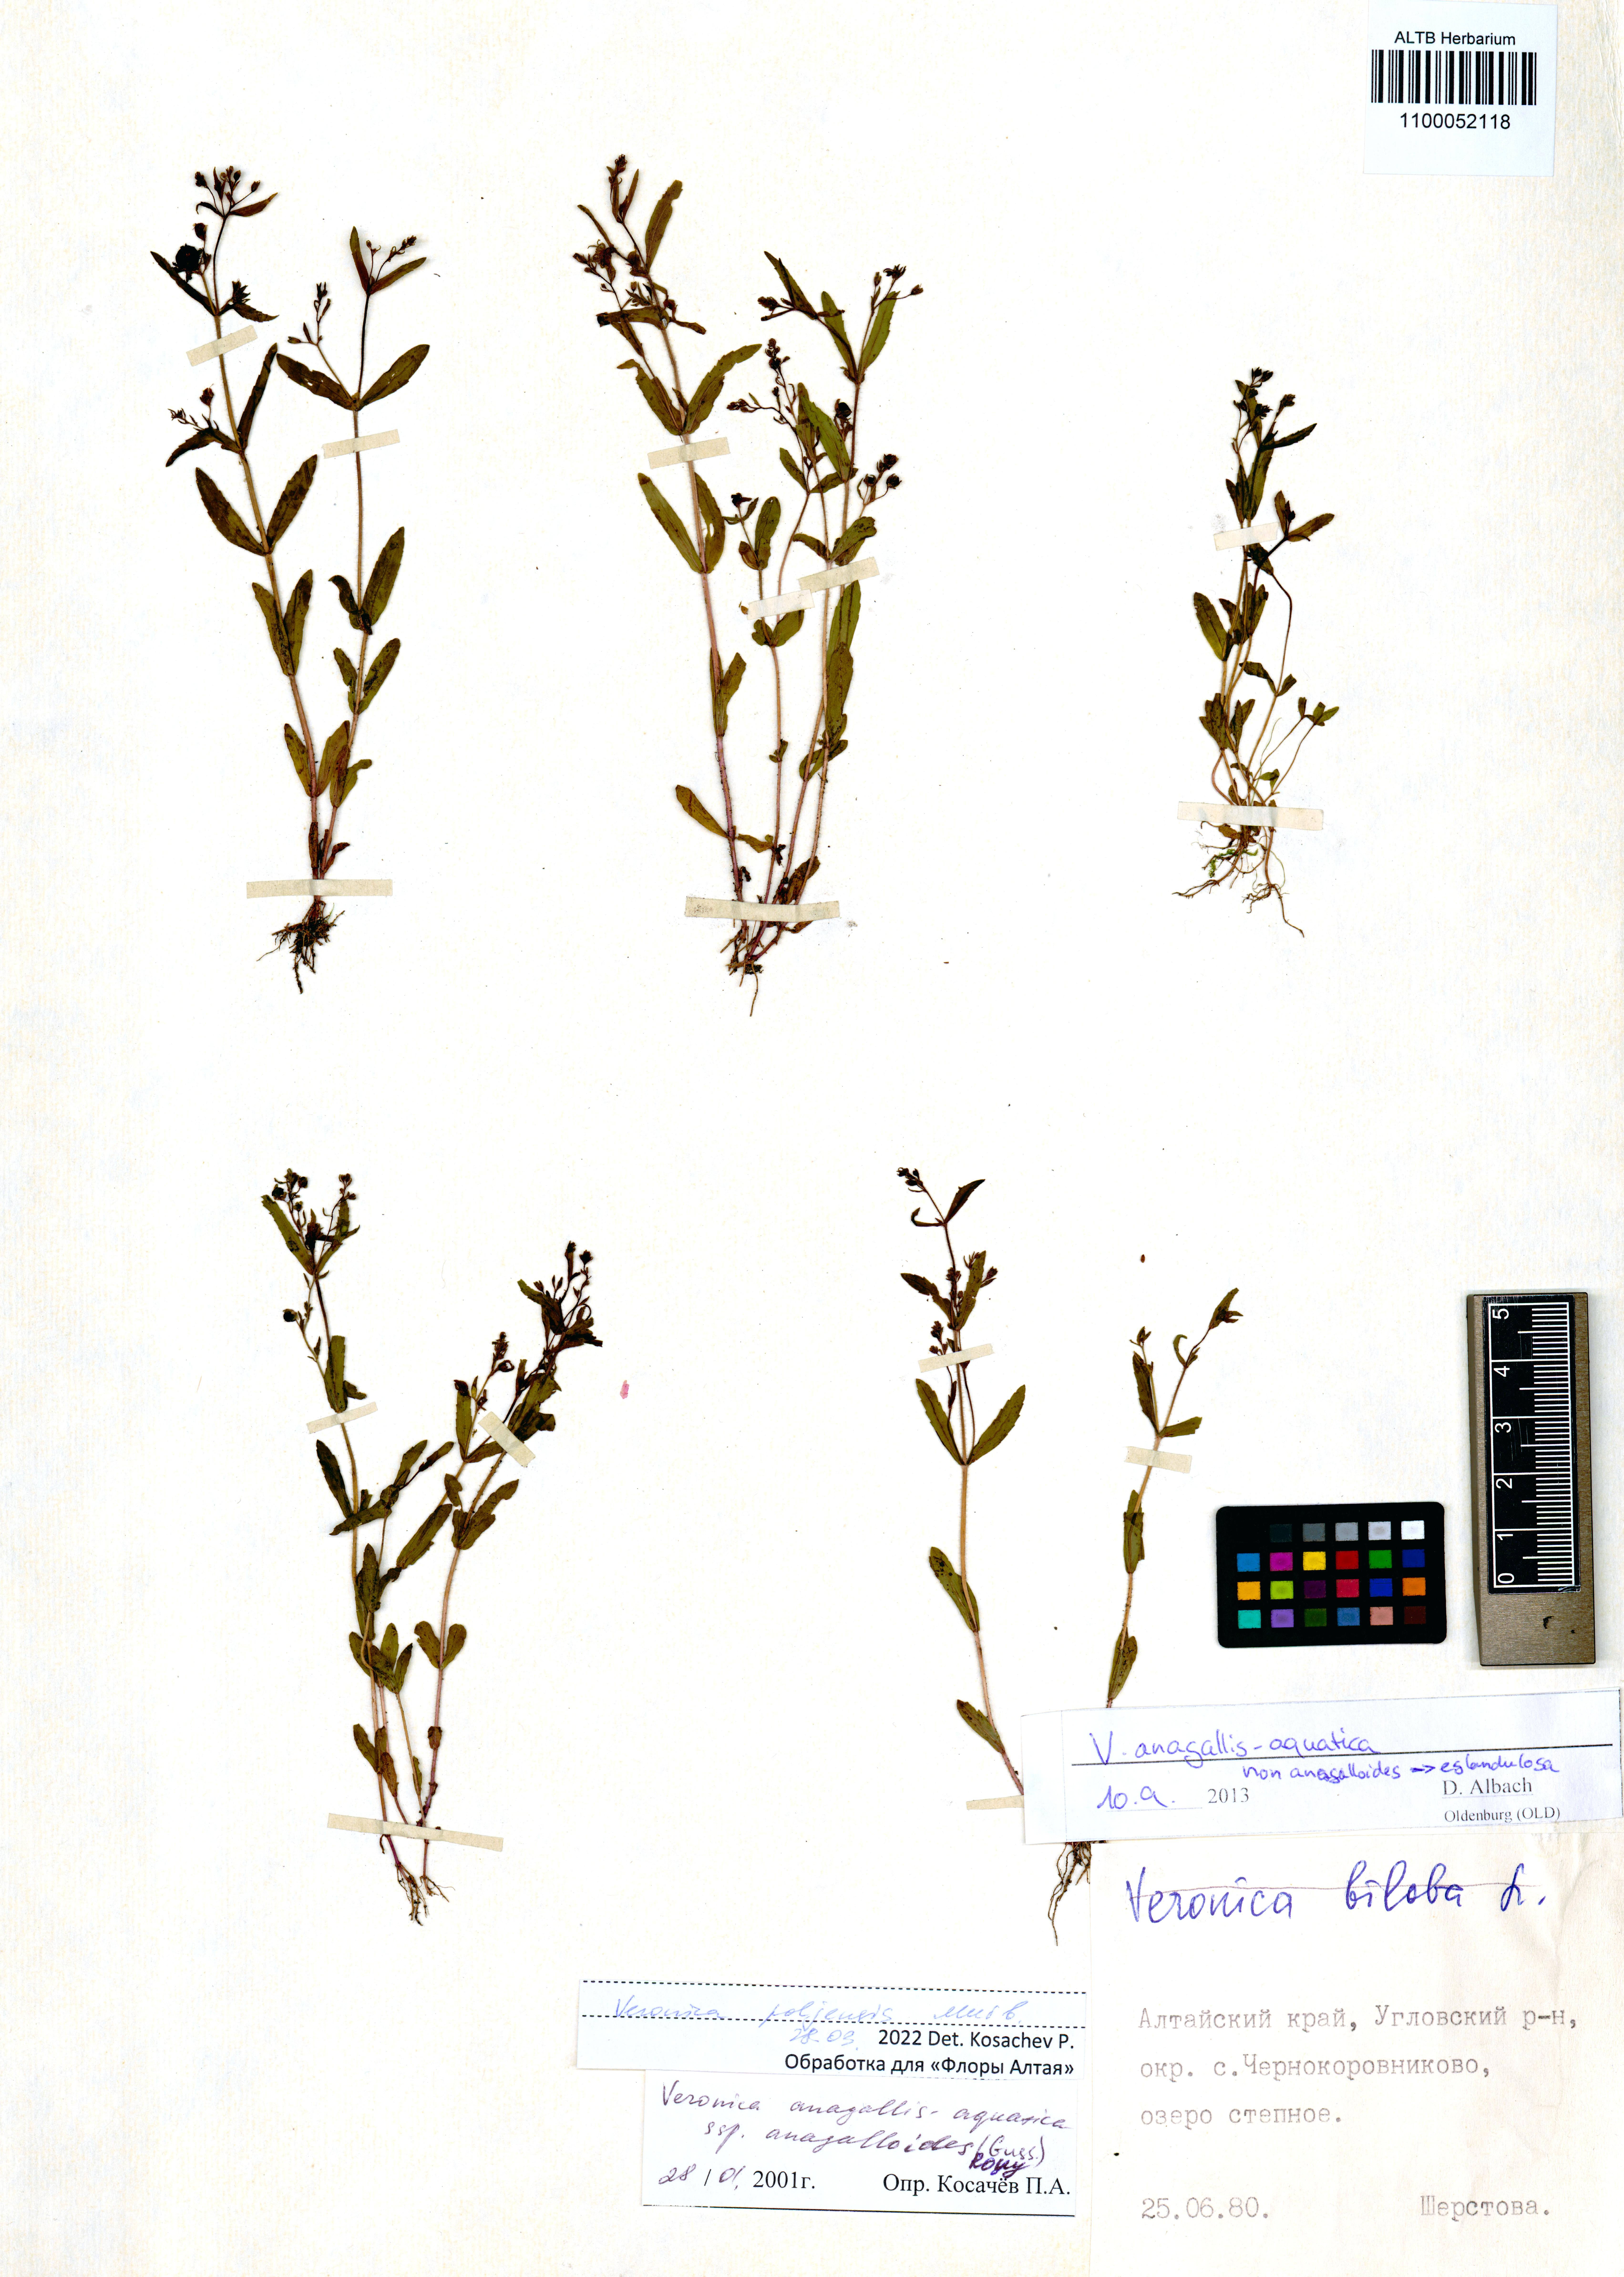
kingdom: Plantae
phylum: Tracheophyta
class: Magnoliopsida
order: Lamiales
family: Plantaginaceae
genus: Veronica
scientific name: Veronica poljensis
